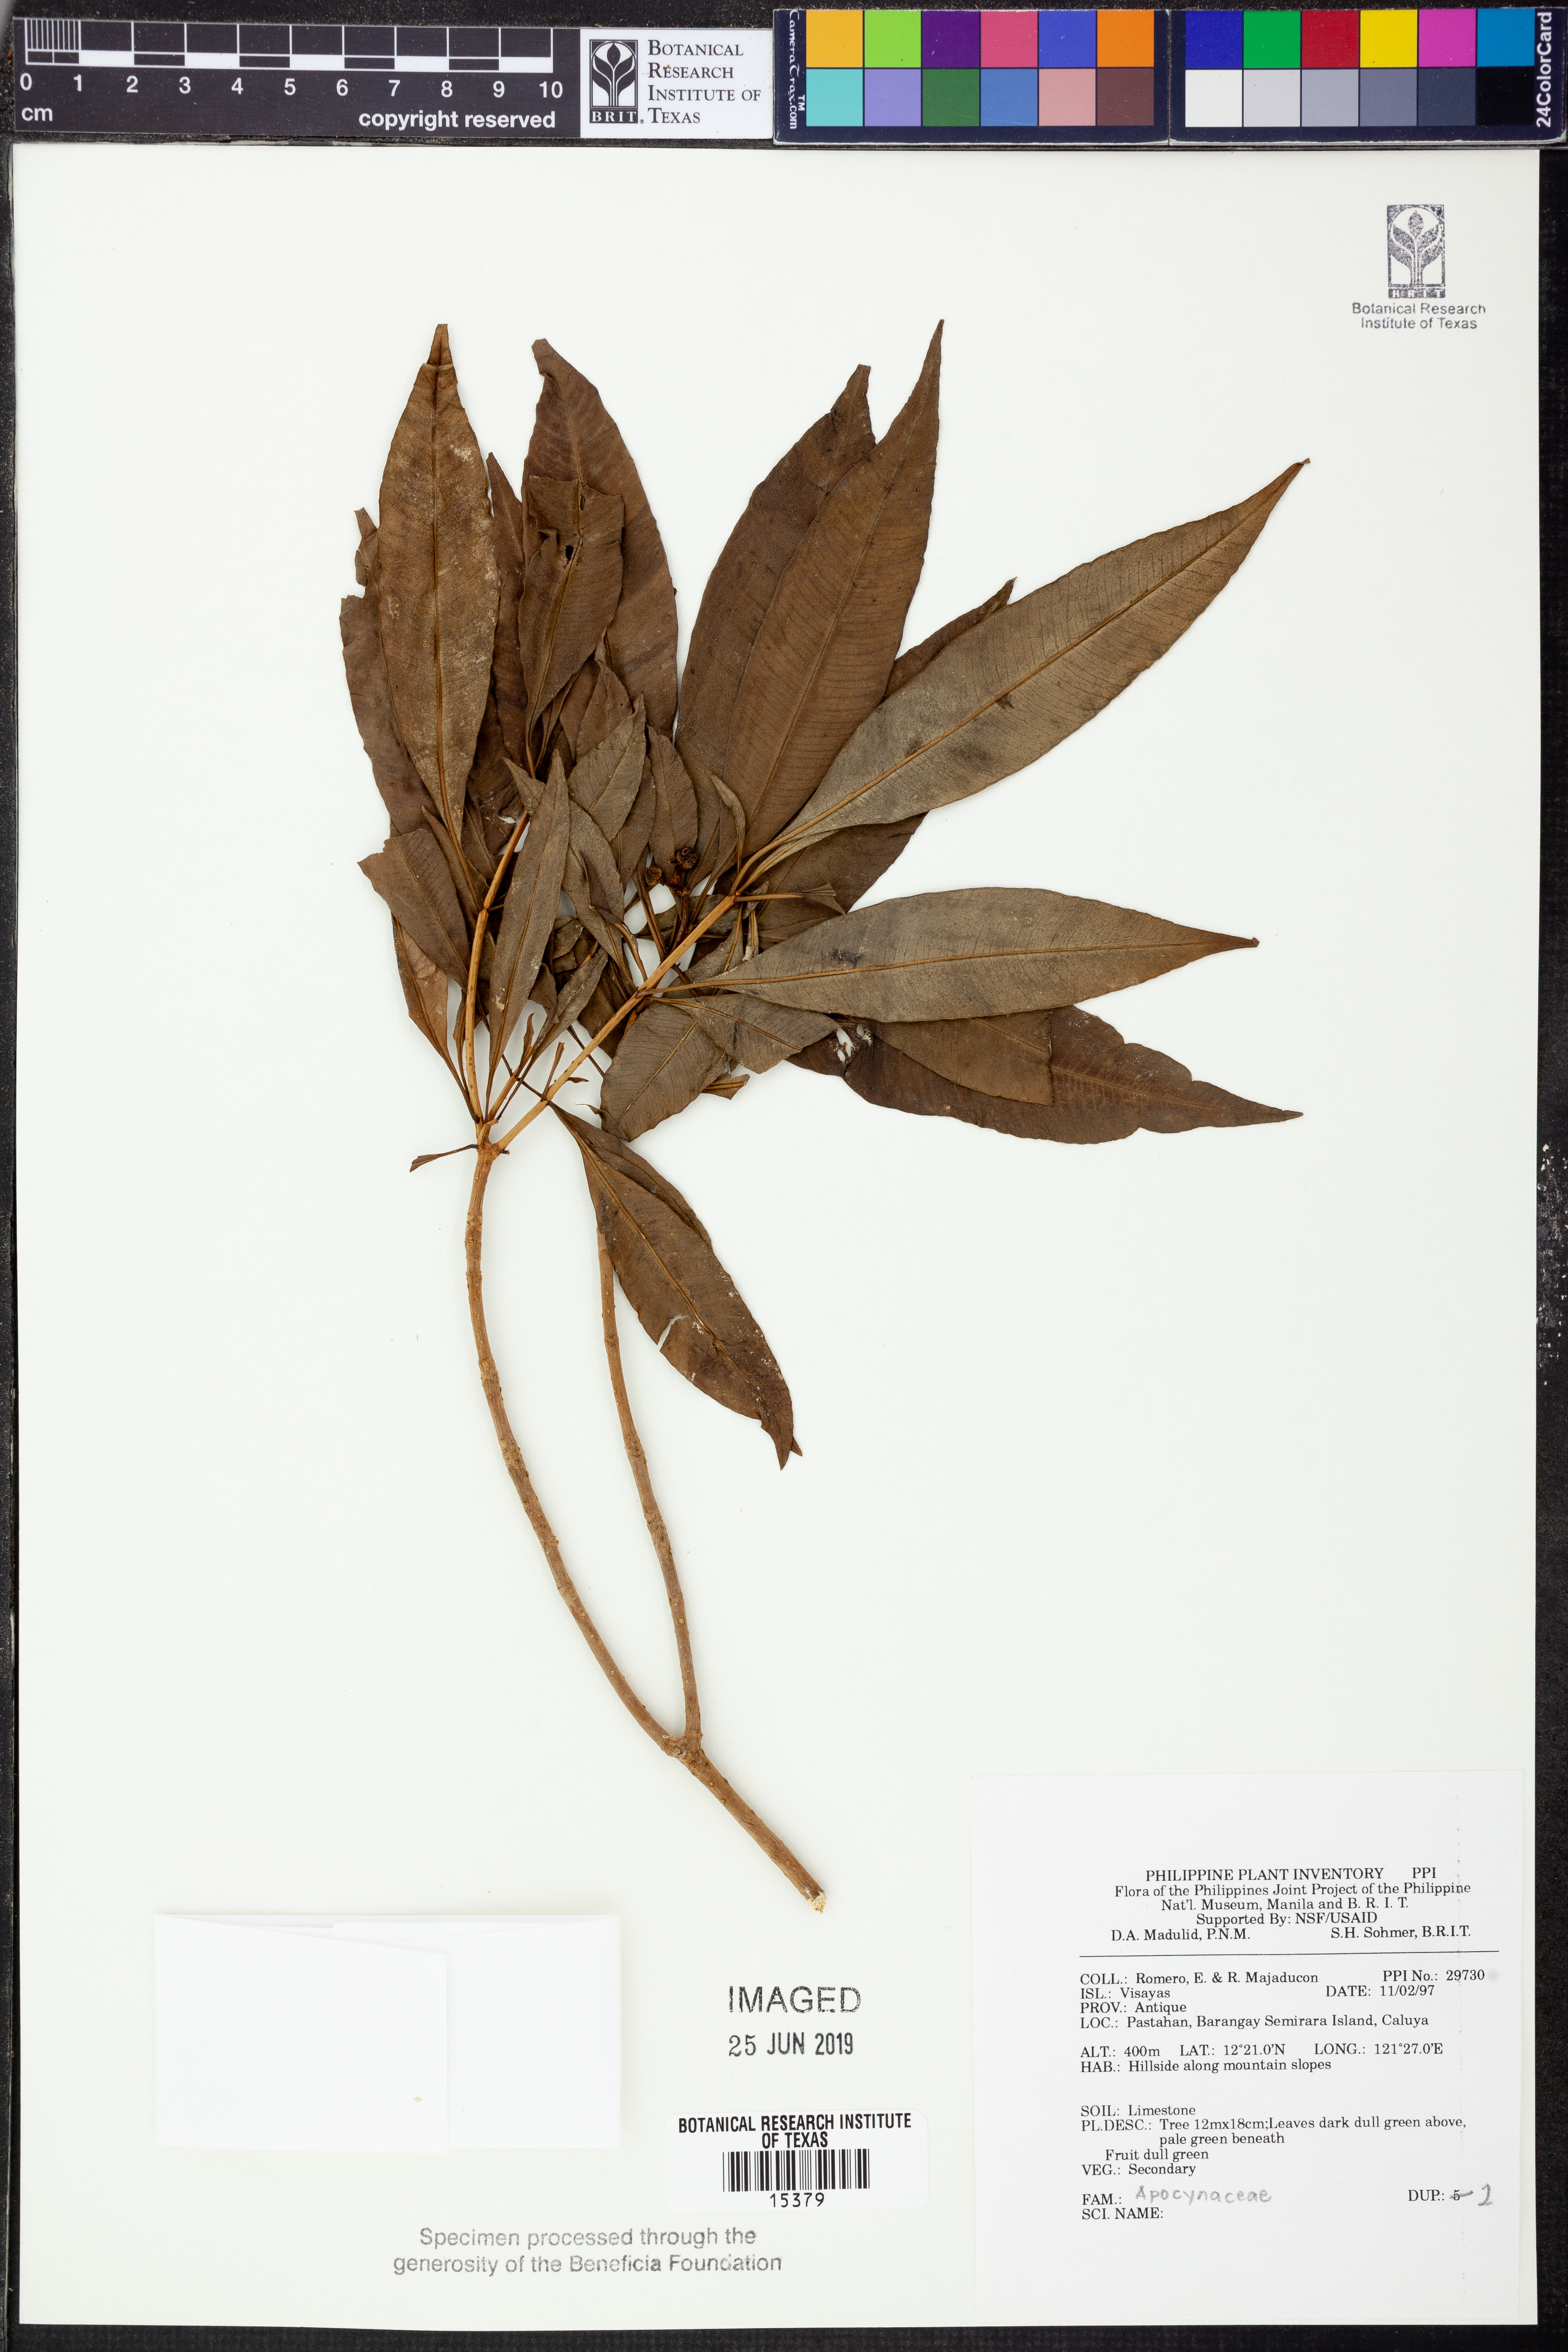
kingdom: Plantae
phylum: Tracheophyta
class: Magnoliopsida
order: Gentianales
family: Apocynaceae
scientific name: Apocynaceae
